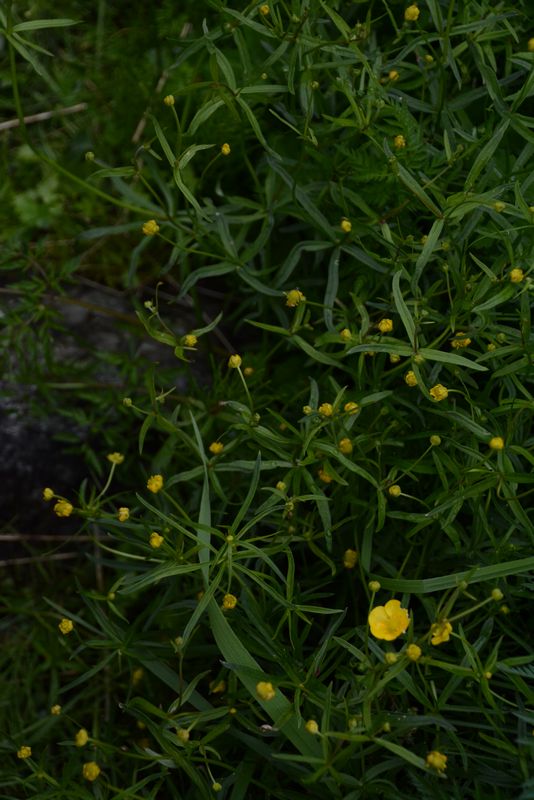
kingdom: Plantae
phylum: Tracheophyta
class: Magnoliopsida
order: Ranunculales
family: Ranunculaceae
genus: Ranunculus
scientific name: Ranunculus auricomus
